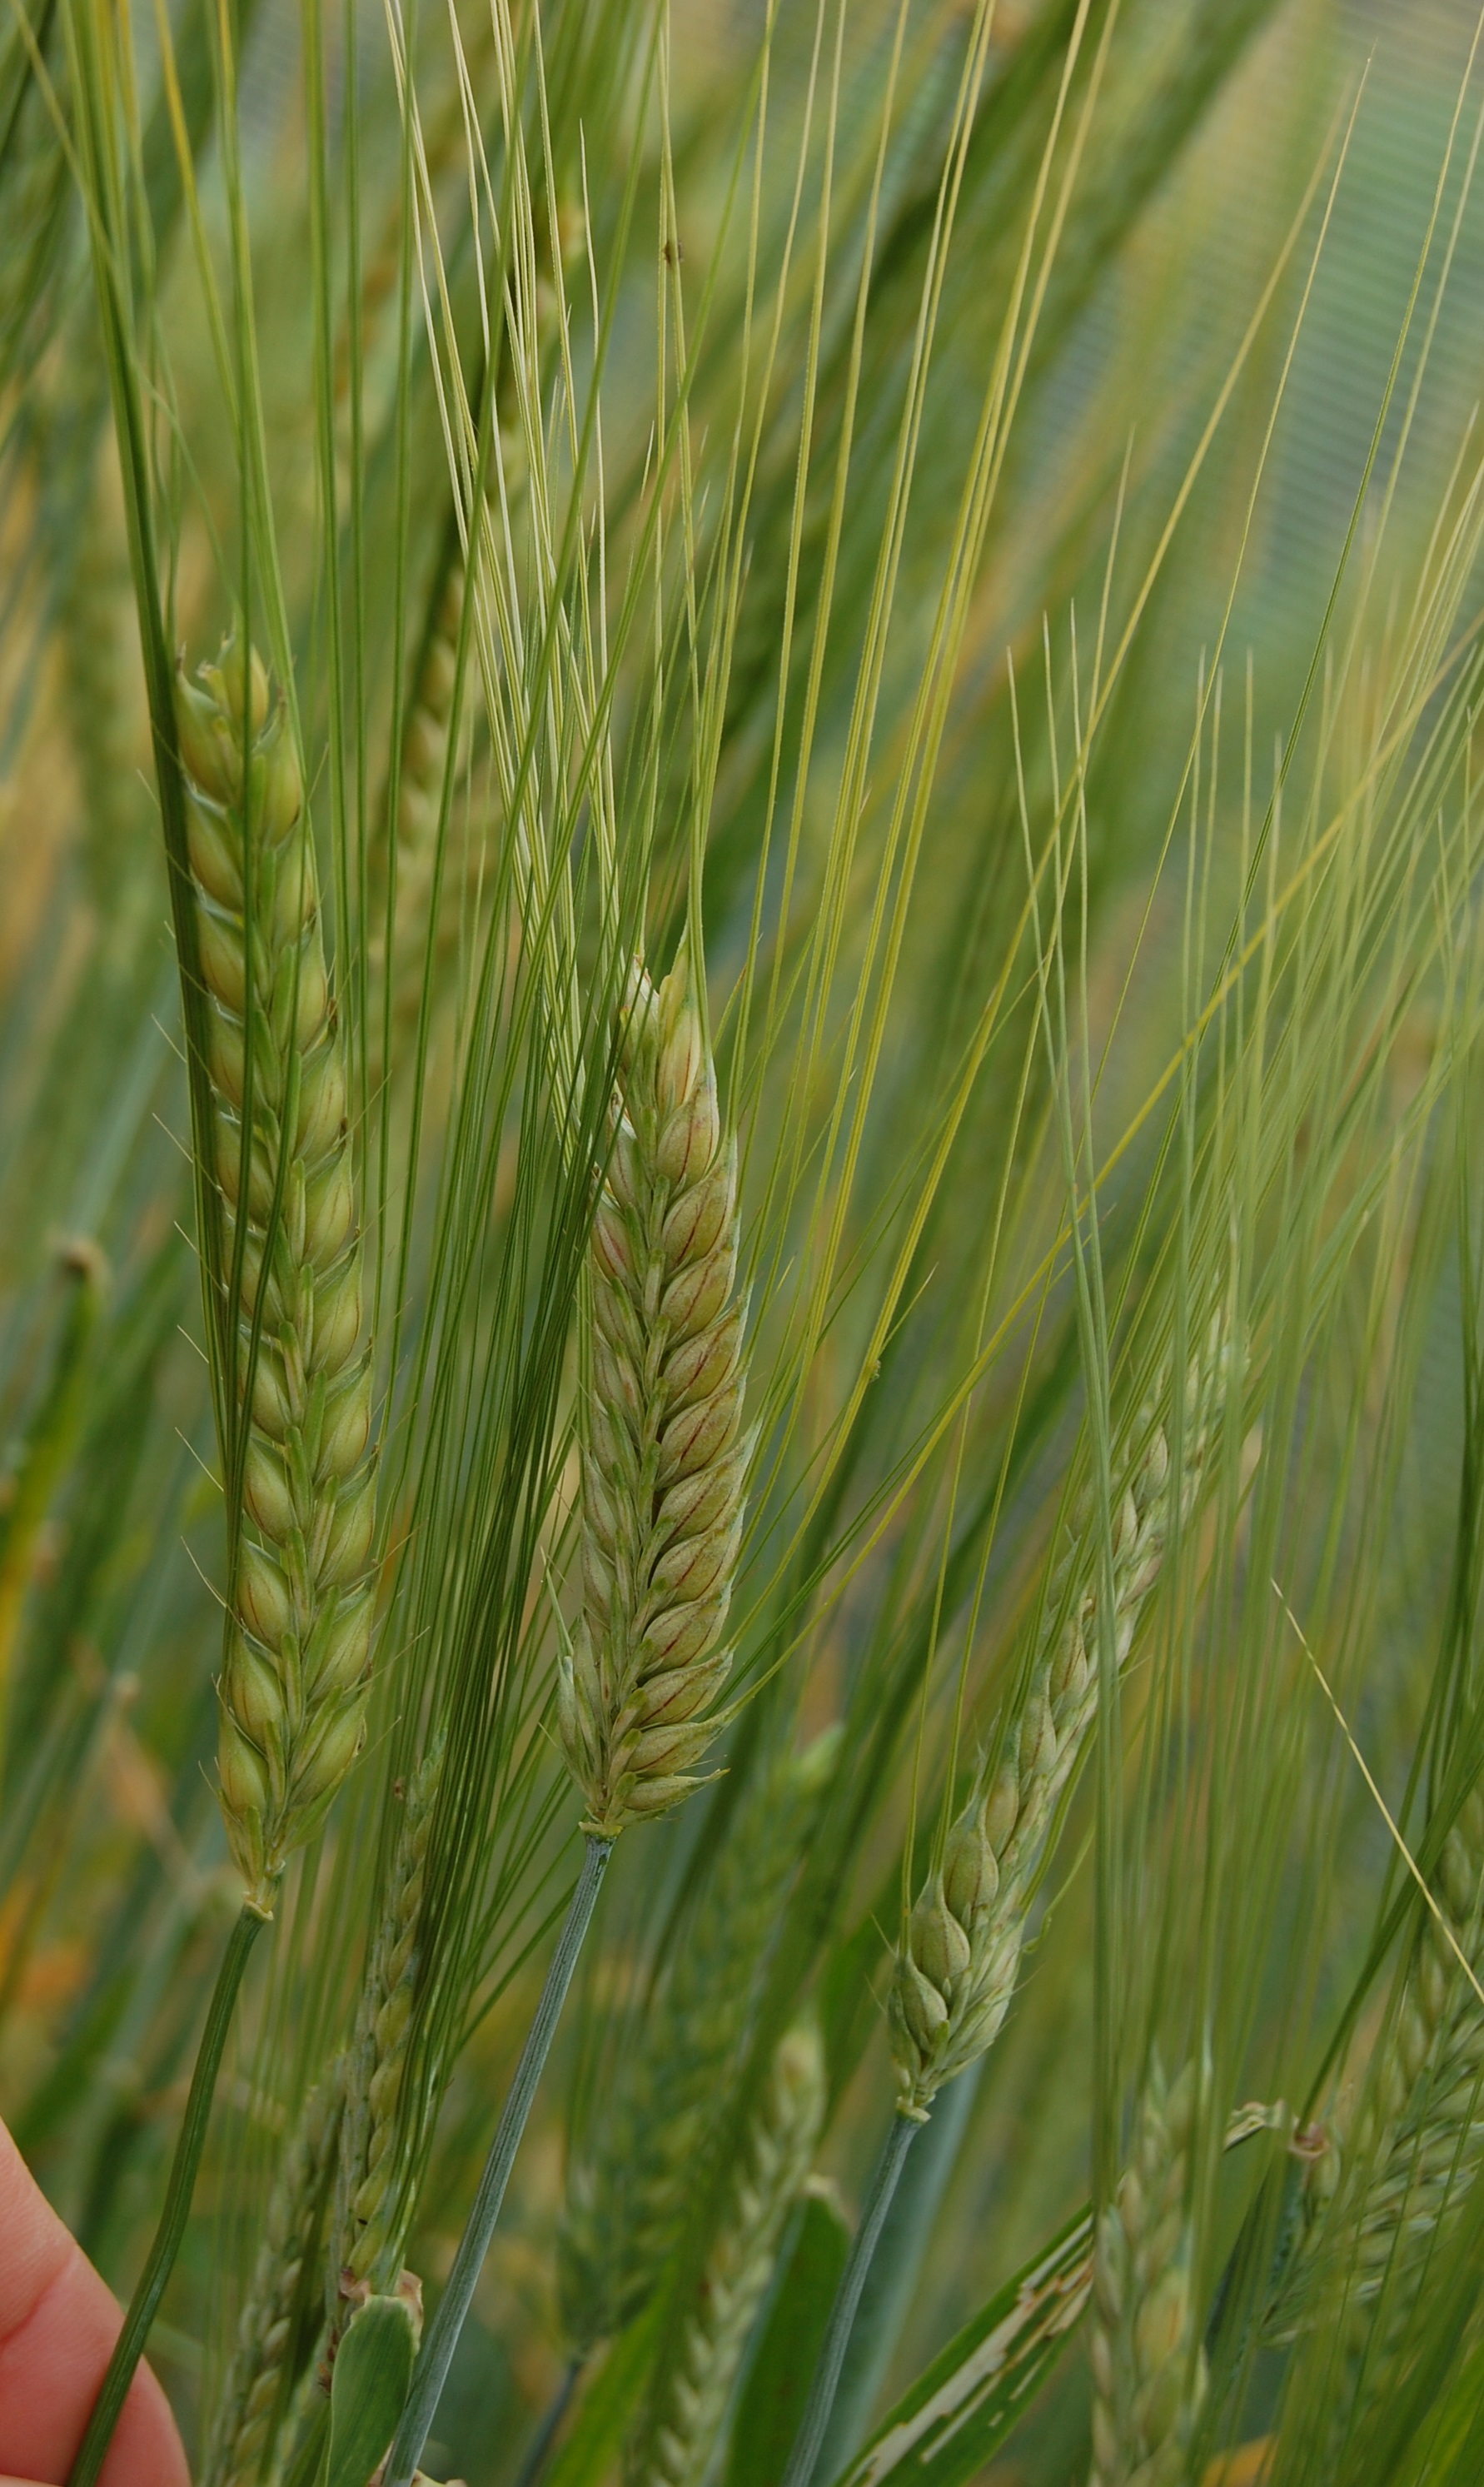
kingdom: Plantae
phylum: Tracheophyta
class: Liliopsida
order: Poales
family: Poaceae
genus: Hordeum
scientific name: Hordeum vulgare
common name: Common barley
